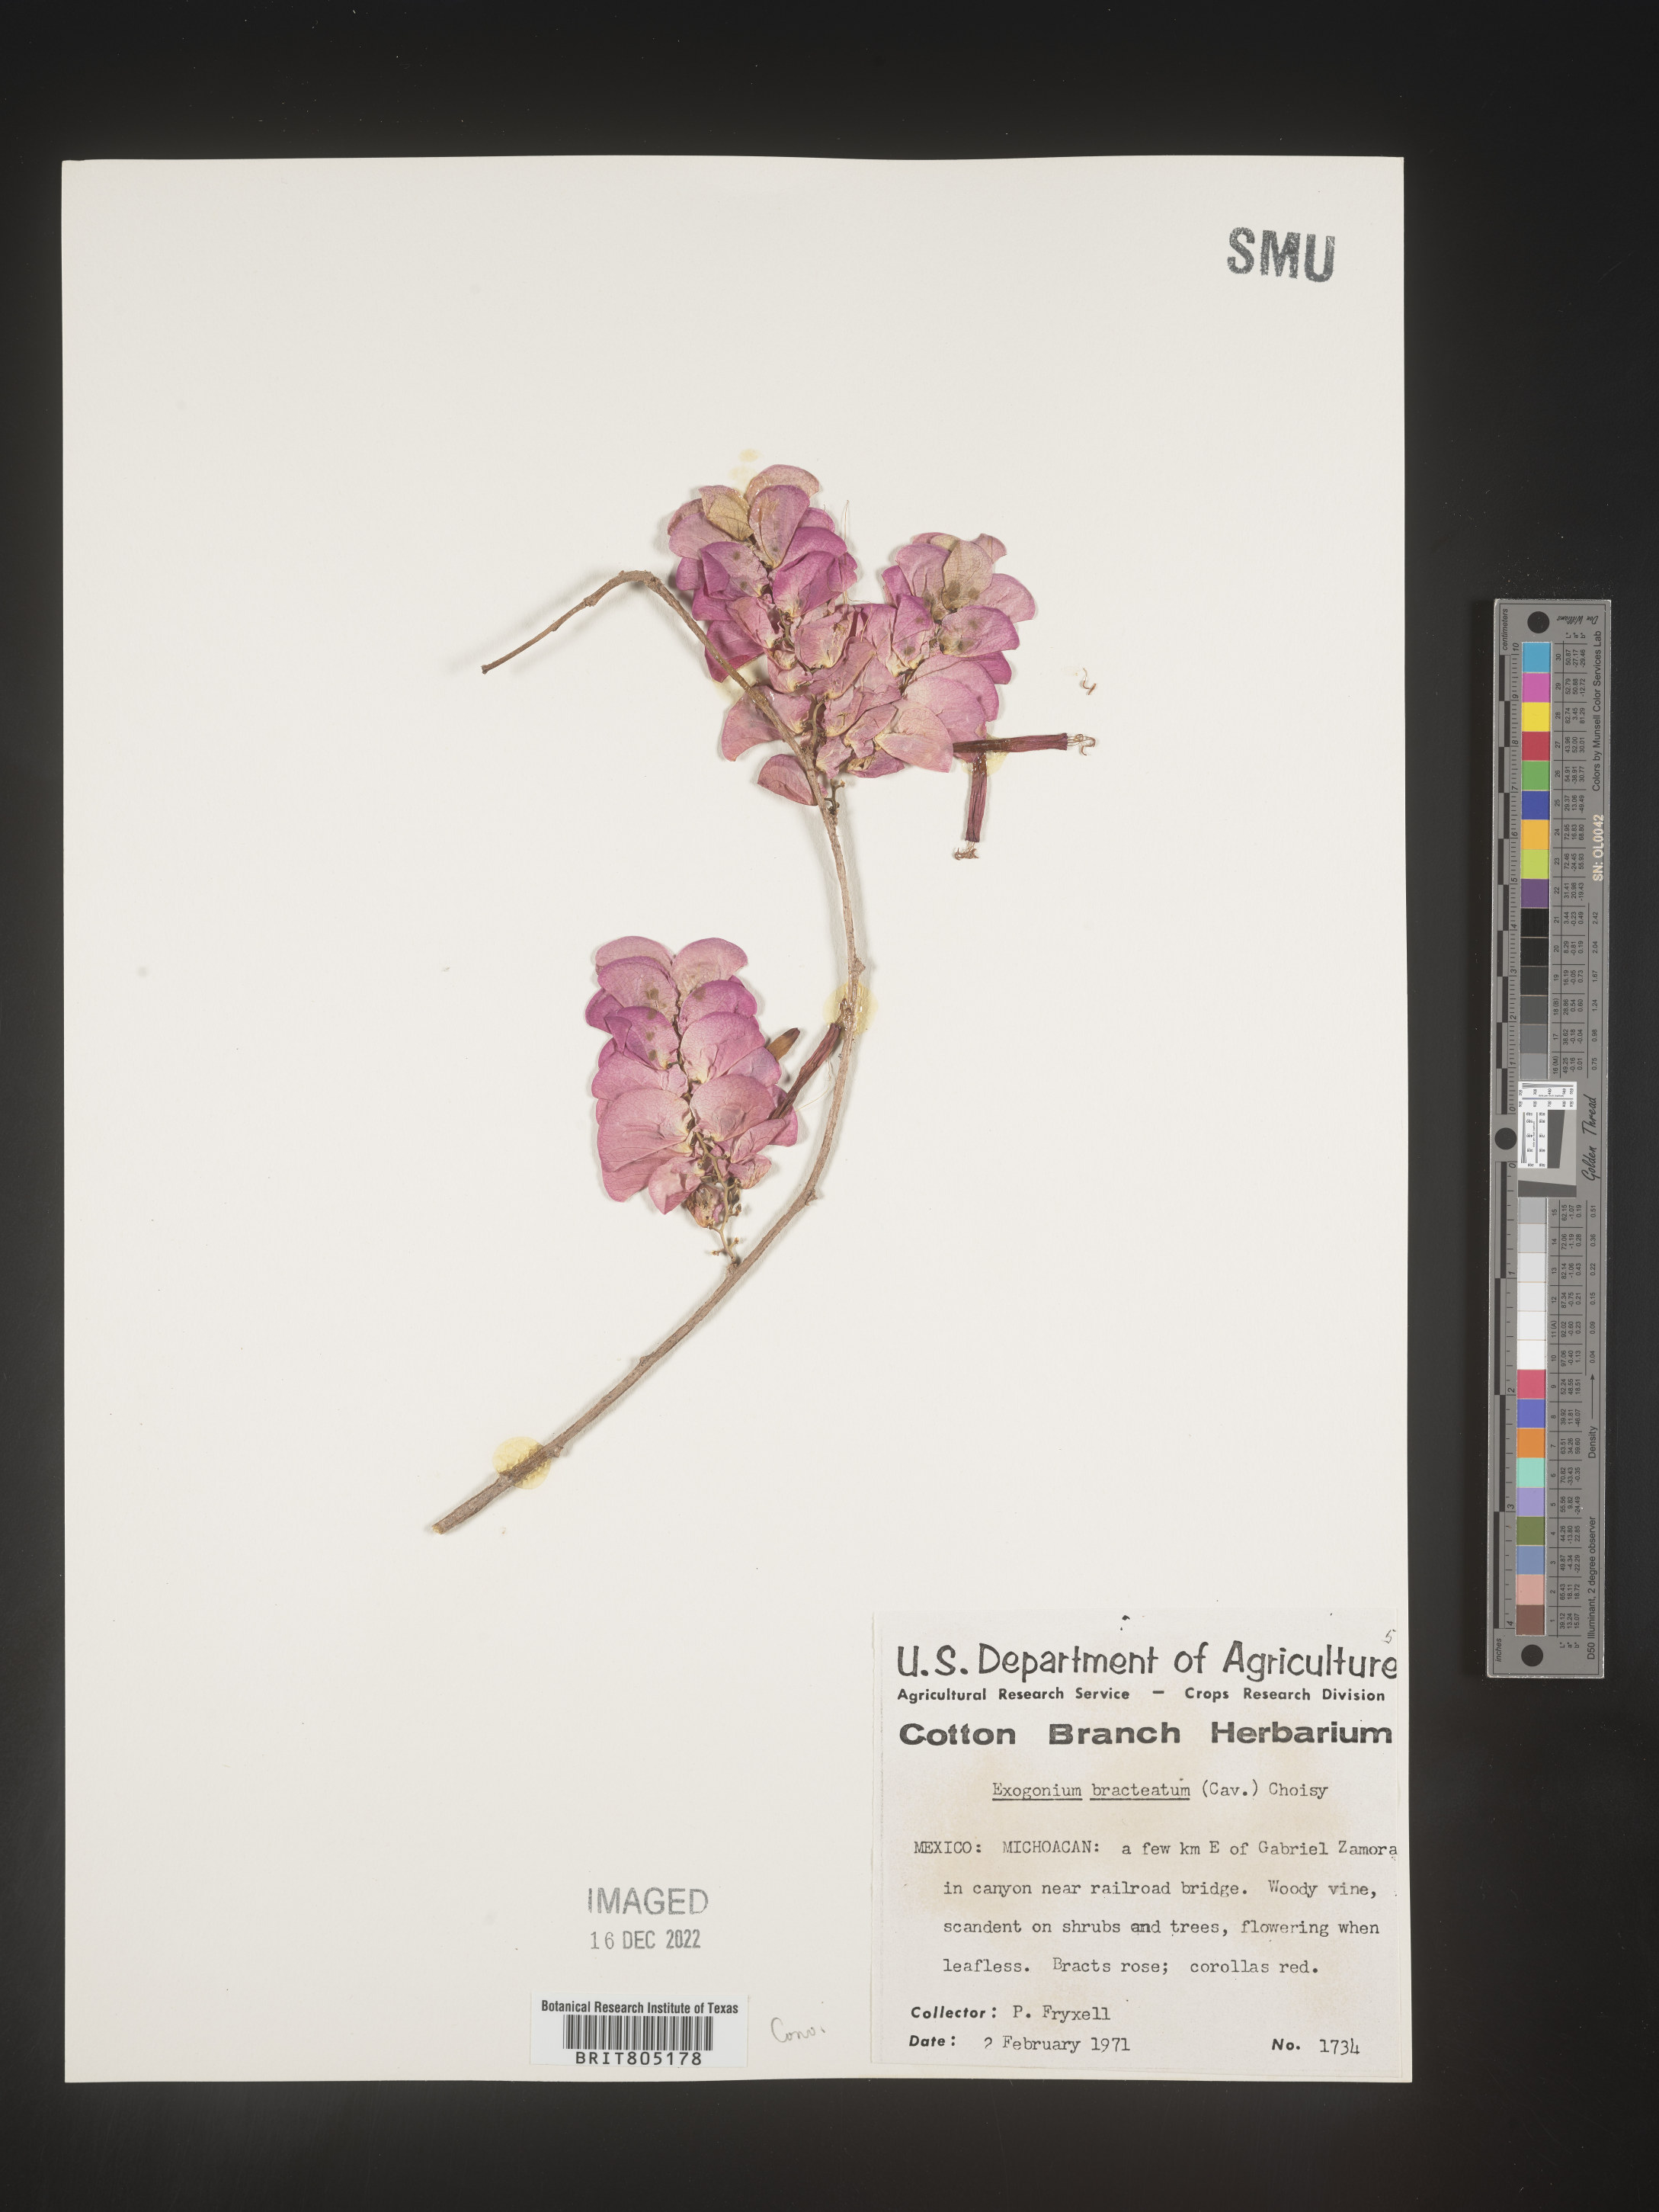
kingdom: Plantae
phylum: Tracheophyta
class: Magnoliopsida
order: Solanales
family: Convolvulaceae
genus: Ipomoea
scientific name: Ipomoea
